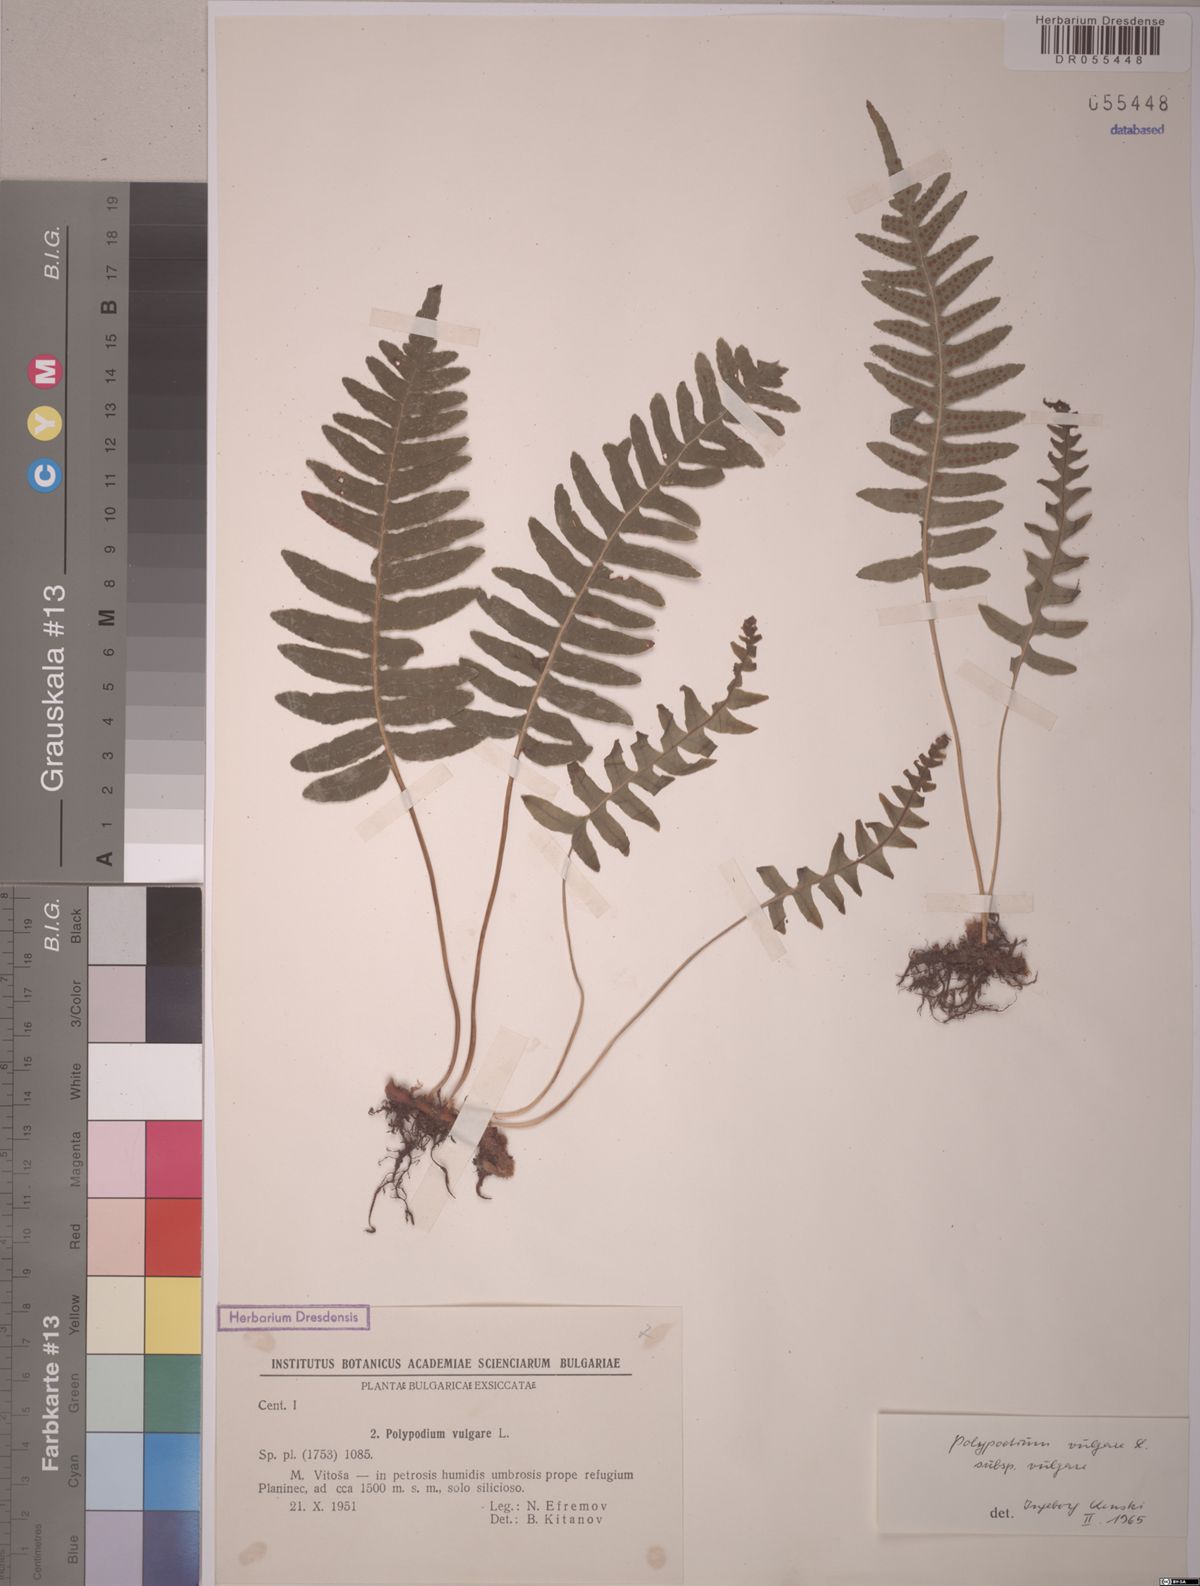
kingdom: Plantae
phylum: Tracheophyta
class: Polypodiopsida
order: Polypodiales
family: Polypodiaceae
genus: Polypodium
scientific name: Polypodium vulgare
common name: Common polypody
